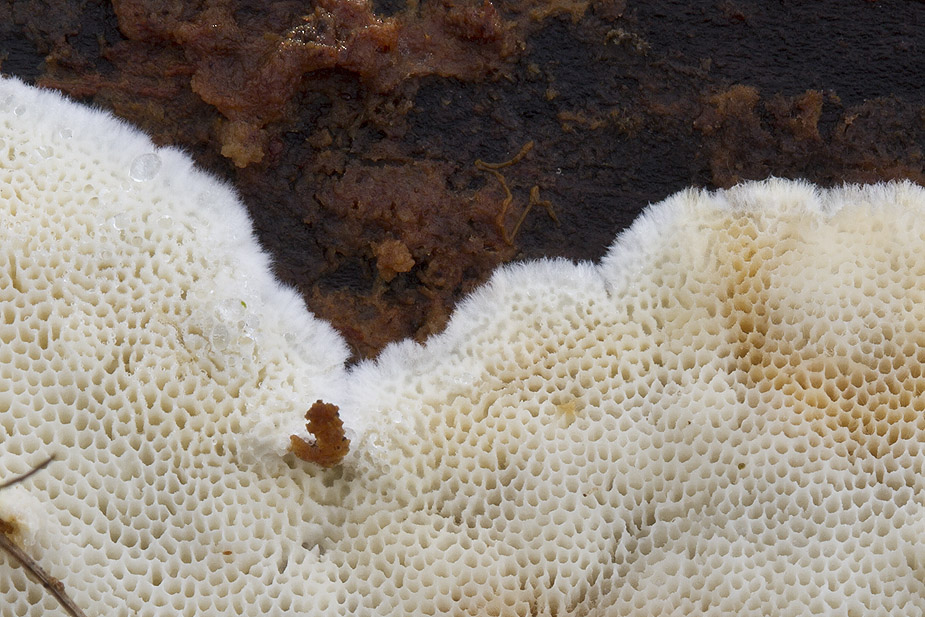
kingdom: Fungi
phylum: Basidiomycota
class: Agaricomycetes
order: Polyporales
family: Gelatoporiaceae
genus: Cinereomyces
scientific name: Cinereomyces lindbladii
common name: almindelig gråporesvamp
